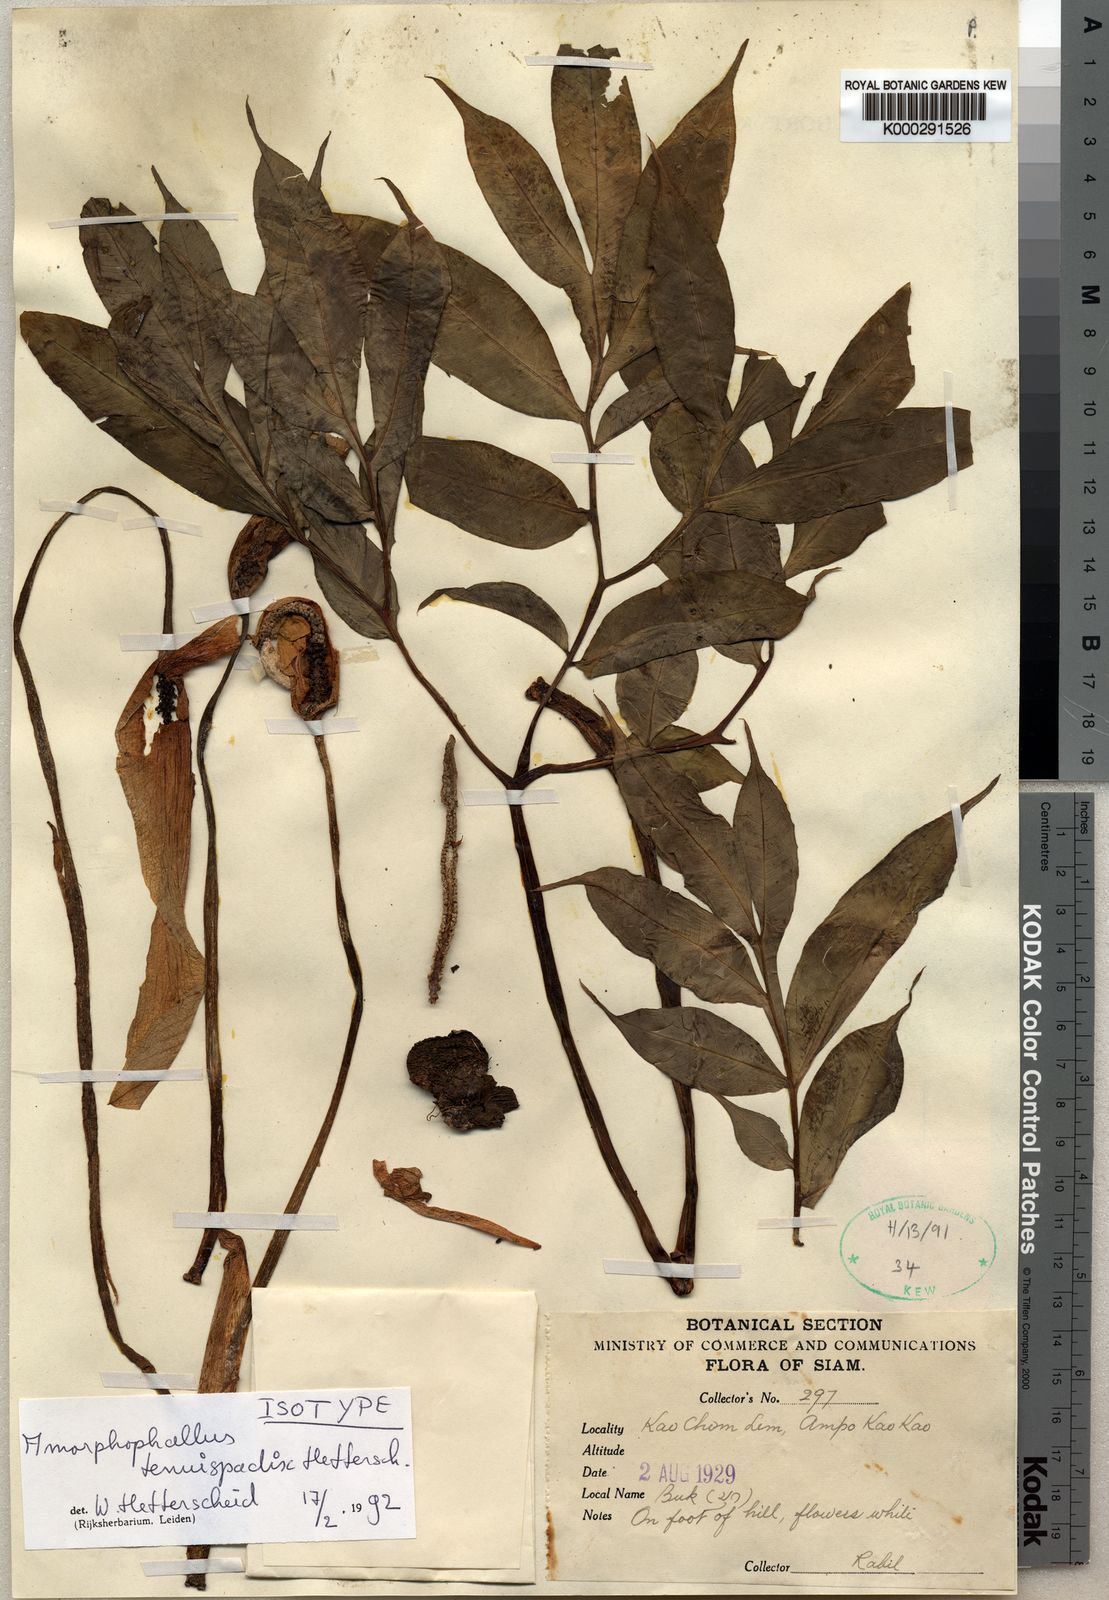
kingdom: Plantae
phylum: Tracheophyta
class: Liliopsida
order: Alismatales
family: Araceae
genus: Amorphophallus
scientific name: Amorphophallus tenuispadix
